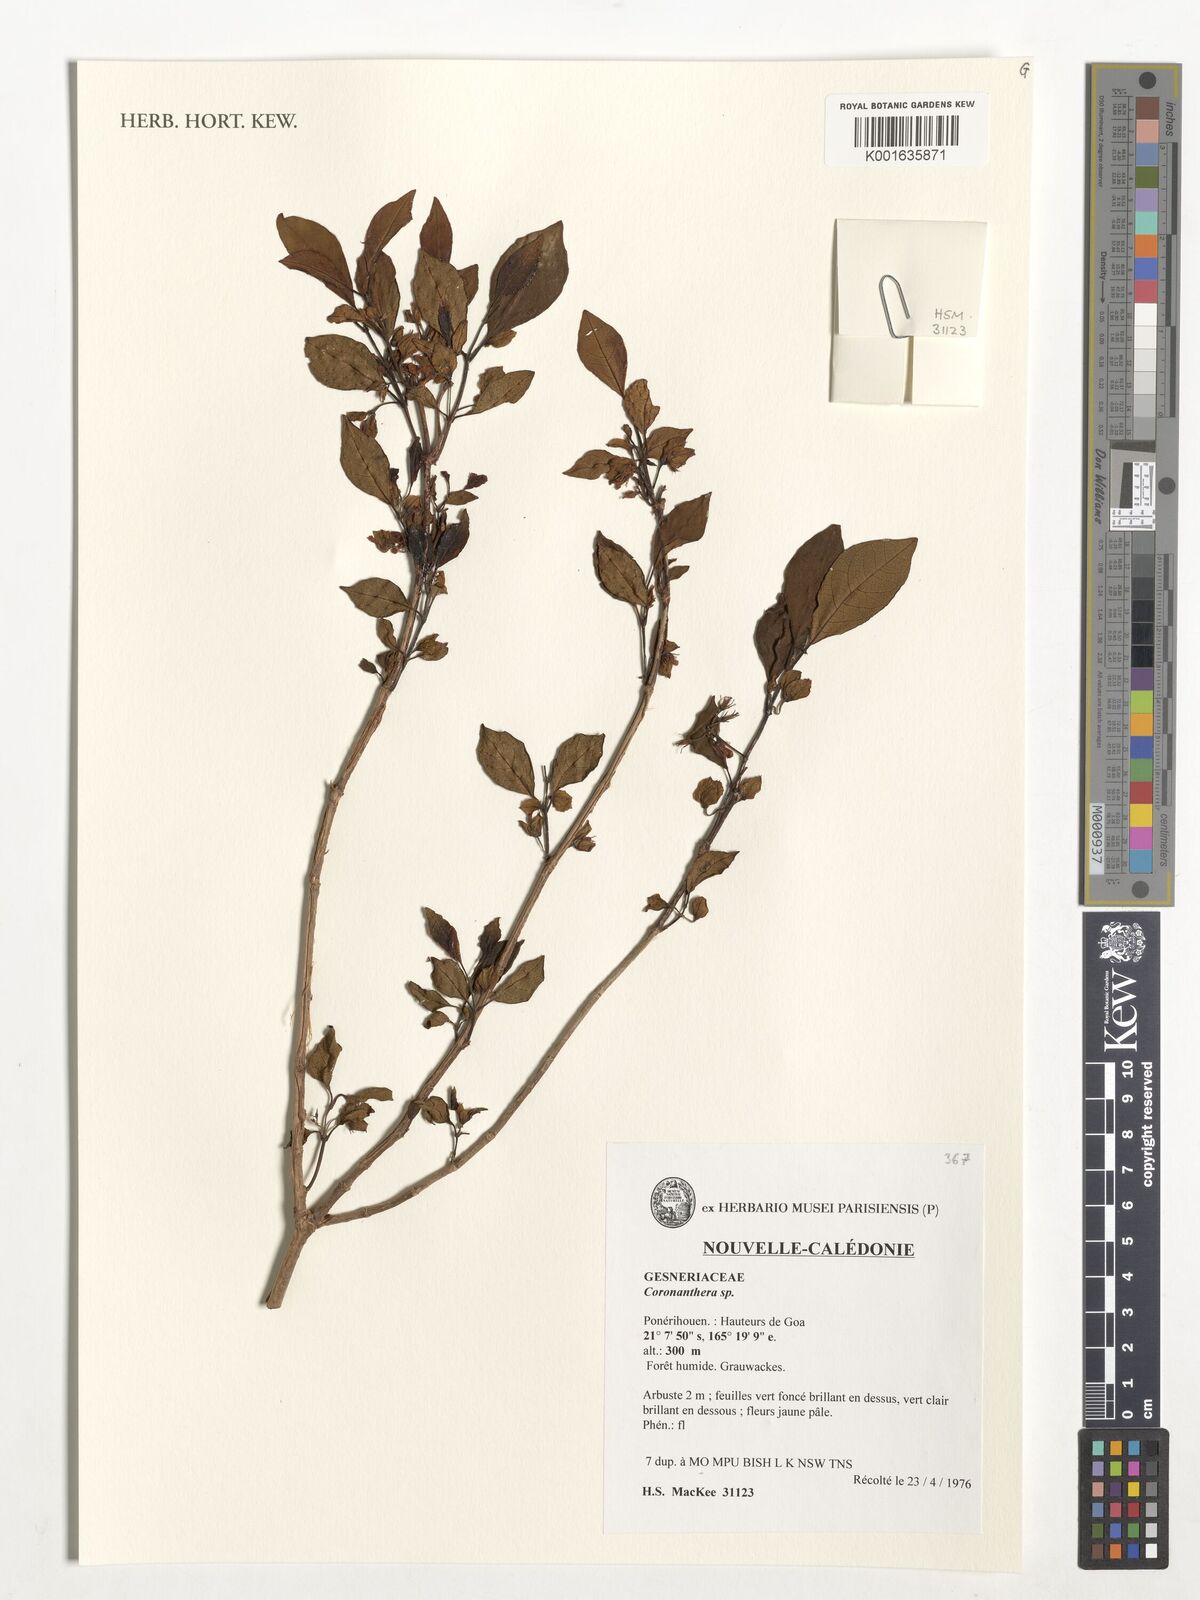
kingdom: Plantae
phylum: Tracheophyta
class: Magnoliopsida
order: Lamiales
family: Gesneriaceae
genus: Coronanthera
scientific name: Coronanthera
